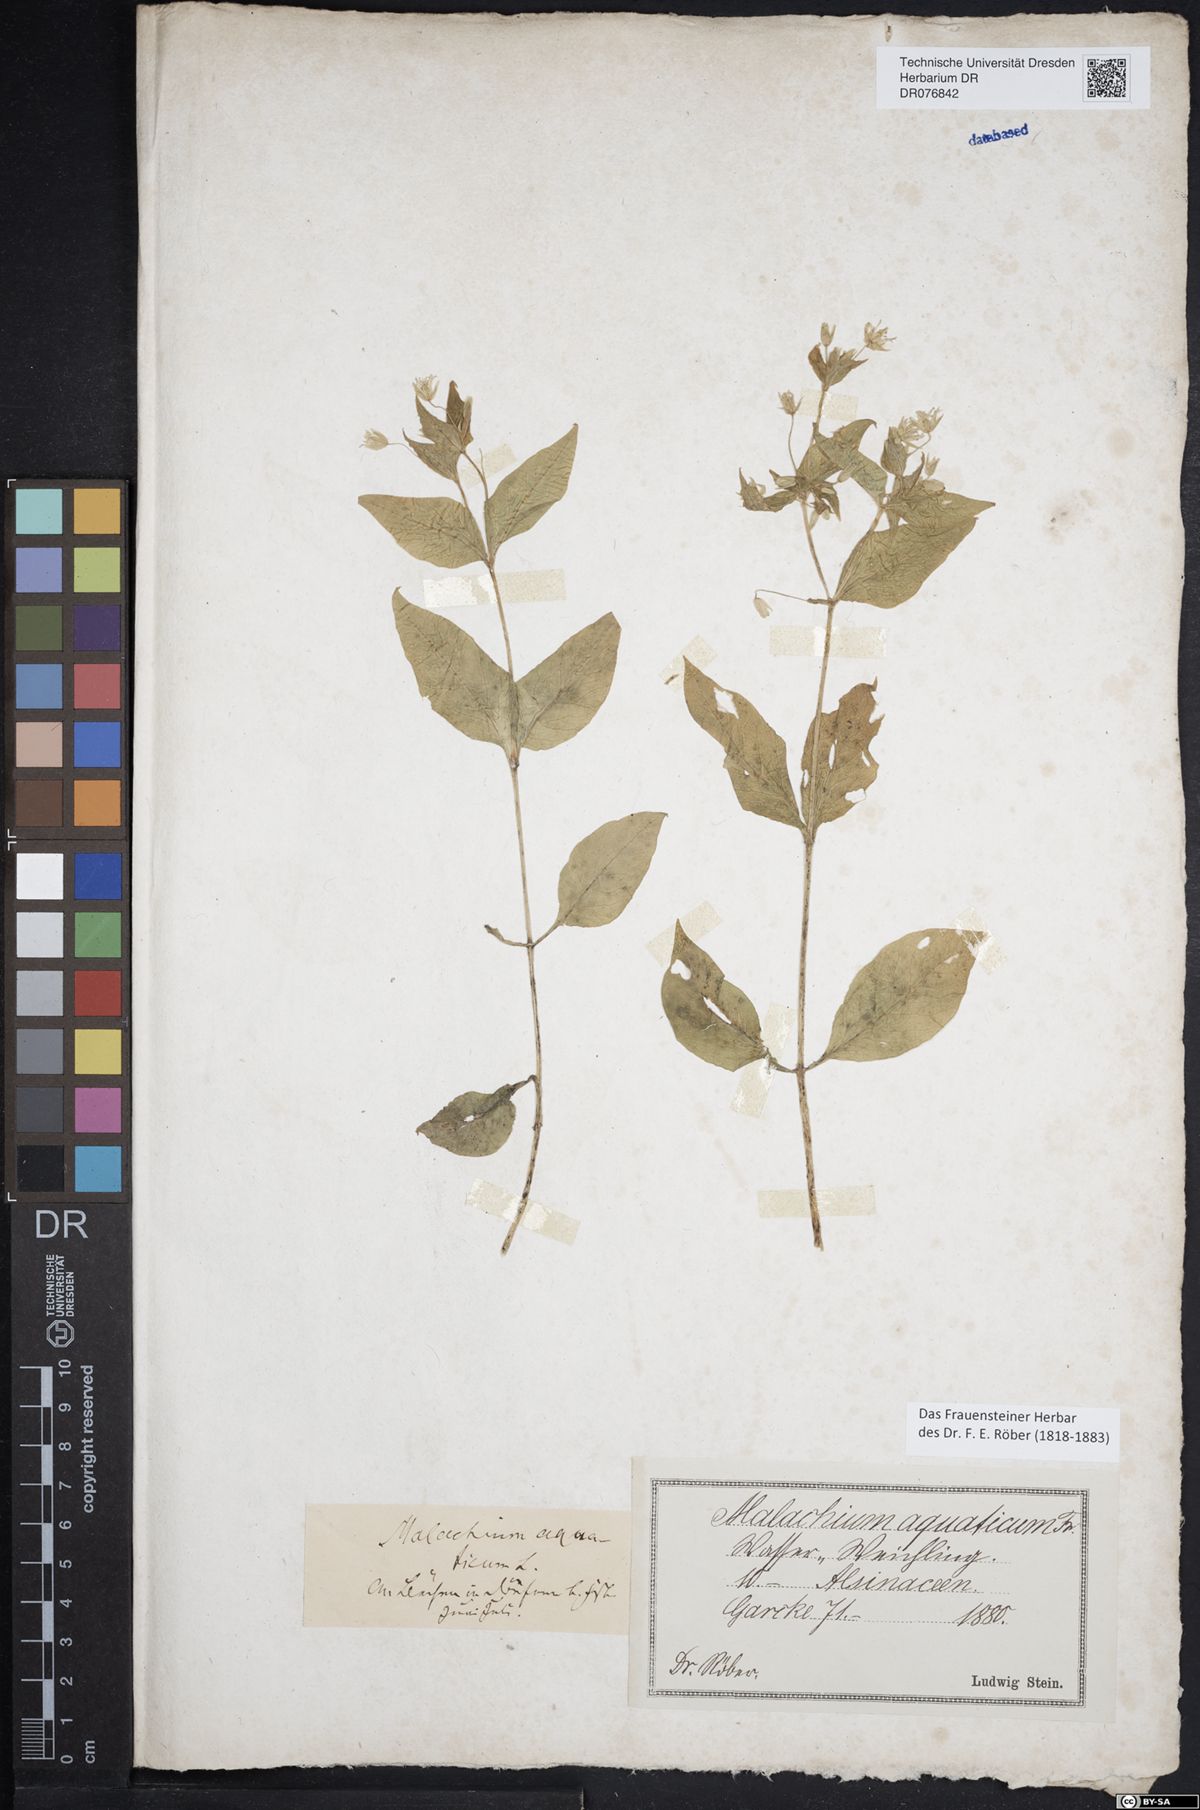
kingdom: Plantae
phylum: Tracheophyta
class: Magnoliopsida
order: Caryophyllales
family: Caryophyllaceae
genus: Stellaria
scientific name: Stellaria aquatica
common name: Water chickweed
